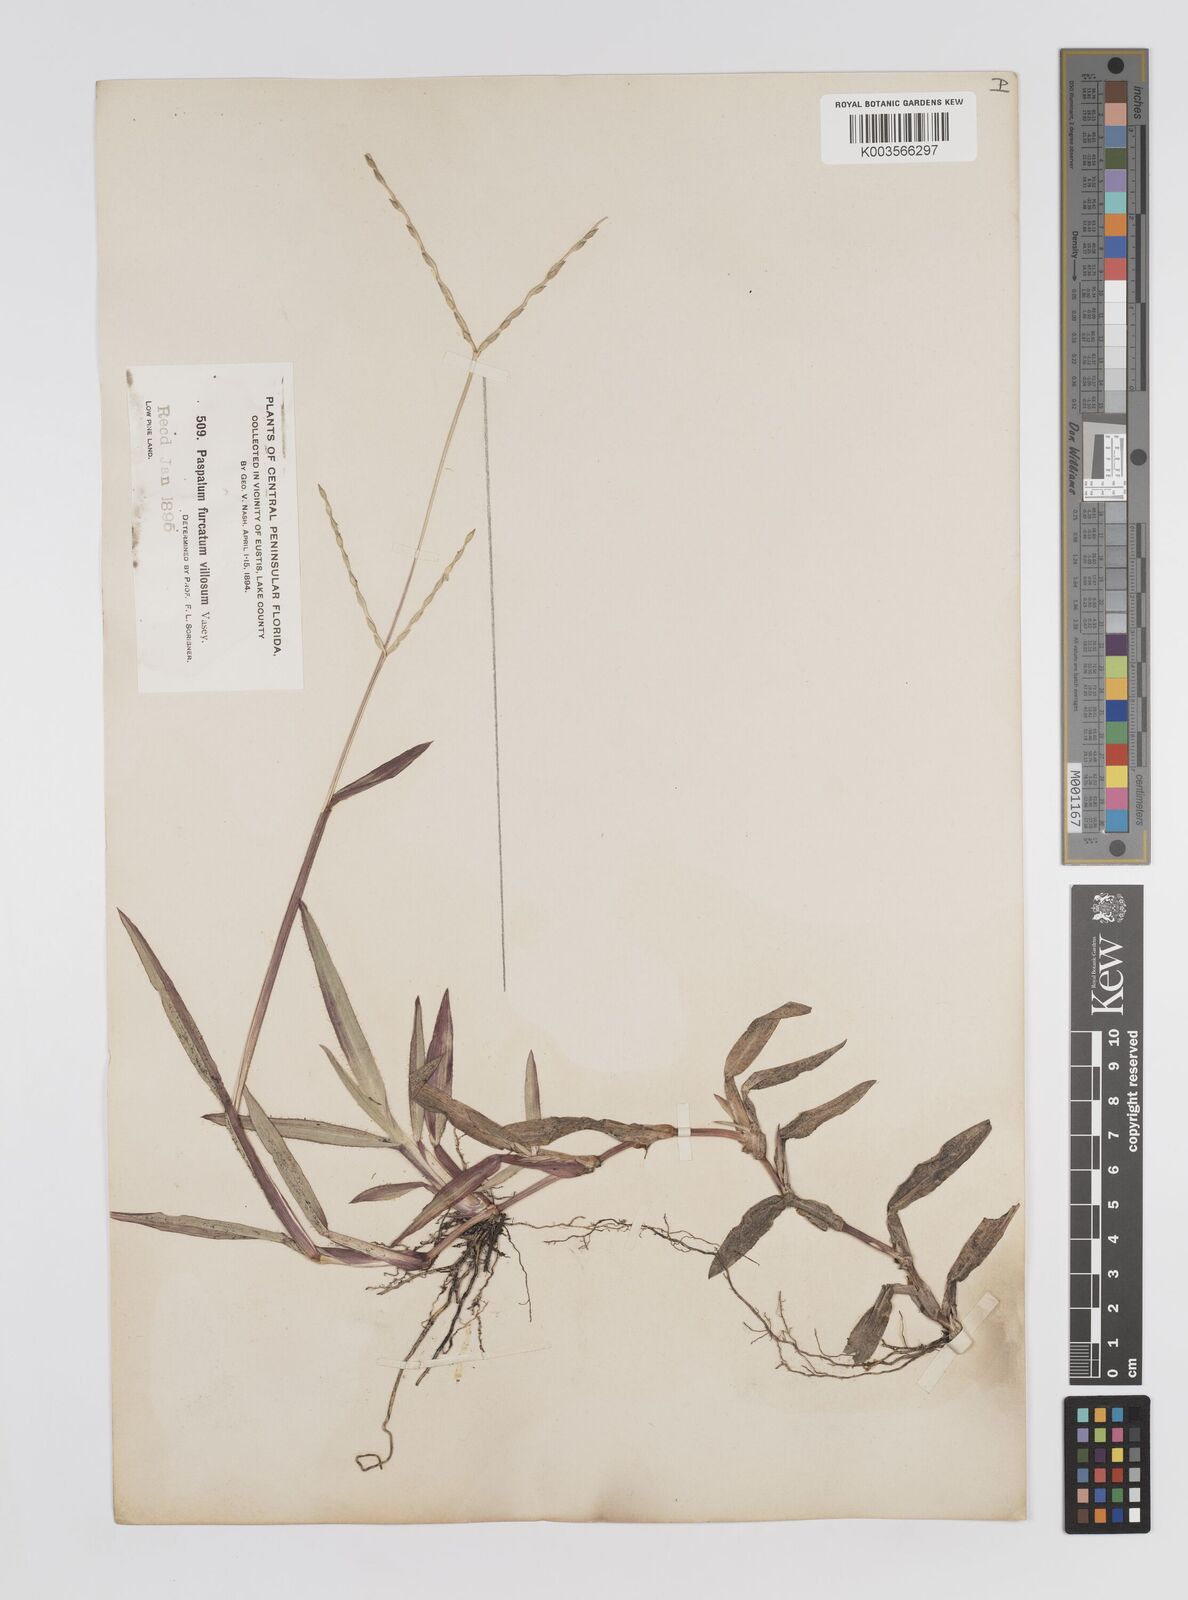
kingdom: Plantae
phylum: Tracheophyta
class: Liliopsida
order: Poales
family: Poaceae
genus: Axonopus
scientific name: Axonopus furcatus
